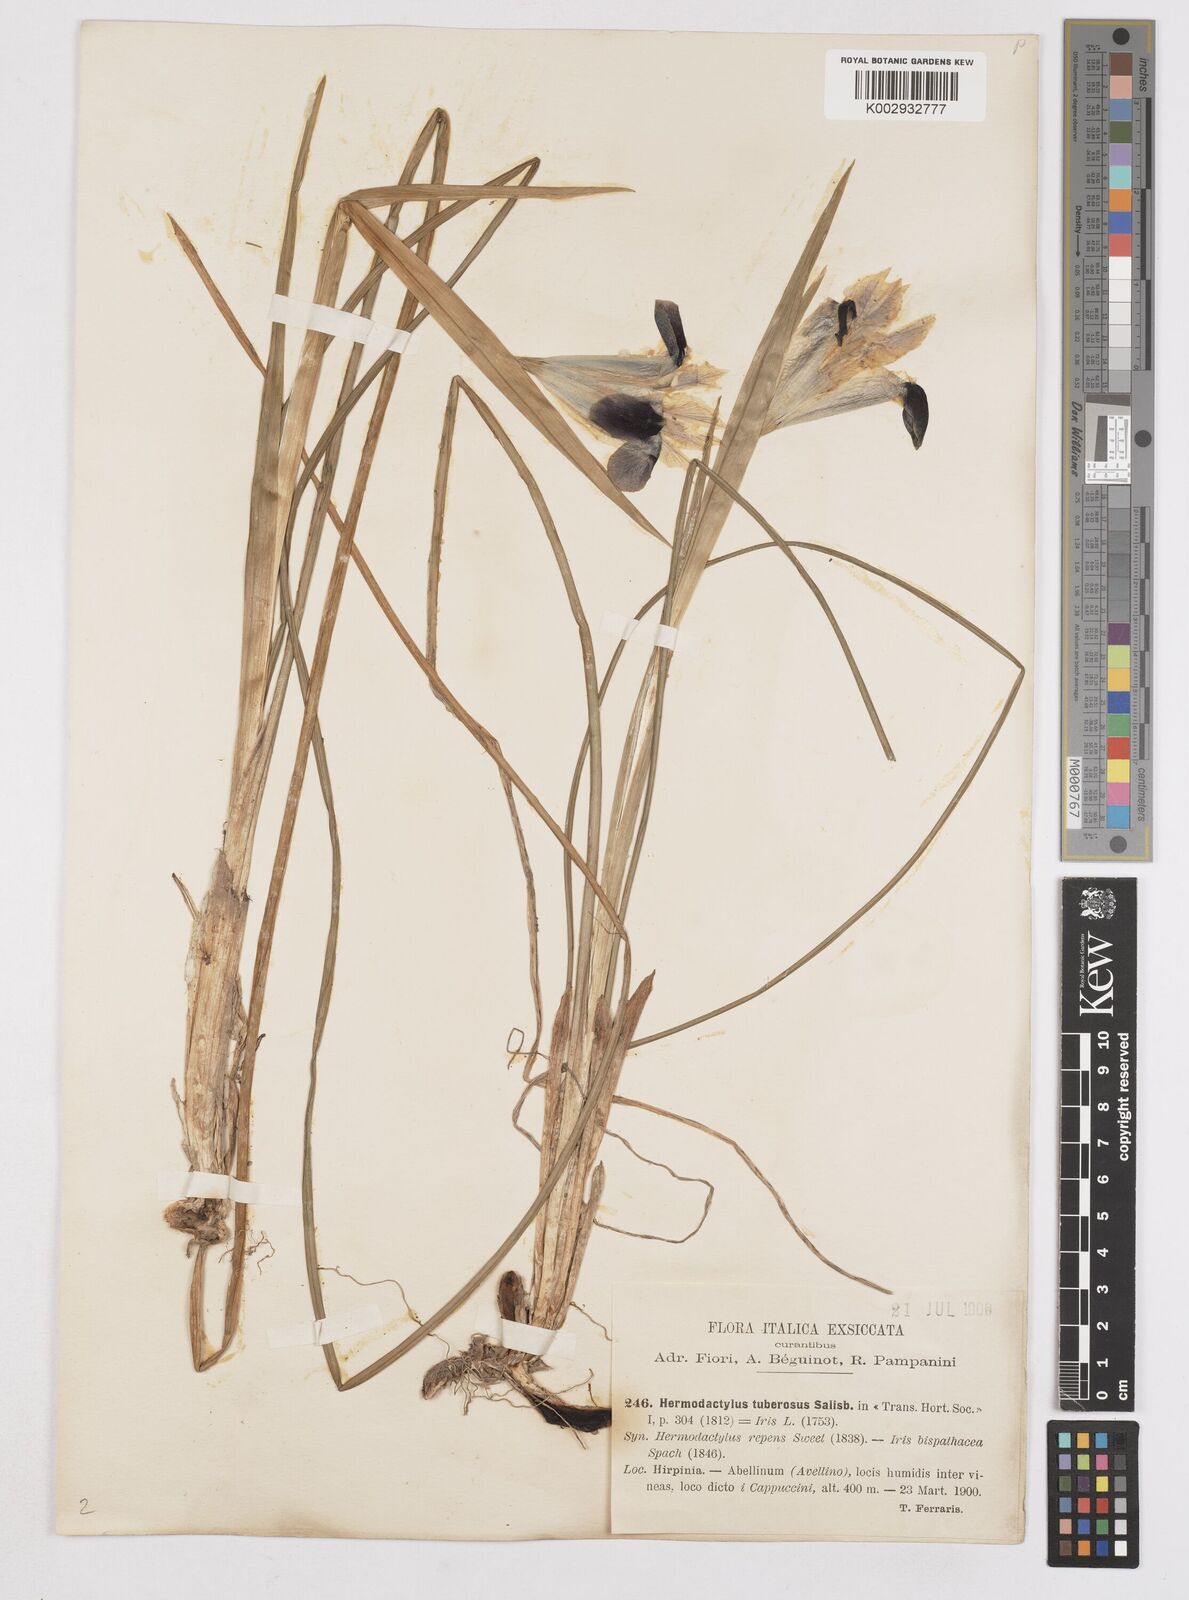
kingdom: Plantae
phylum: Tracheophyta
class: Liliopsida
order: Asparagales
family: Iridaceae
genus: Iris
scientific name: Iris tuberosa
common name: Snake's-head iris
